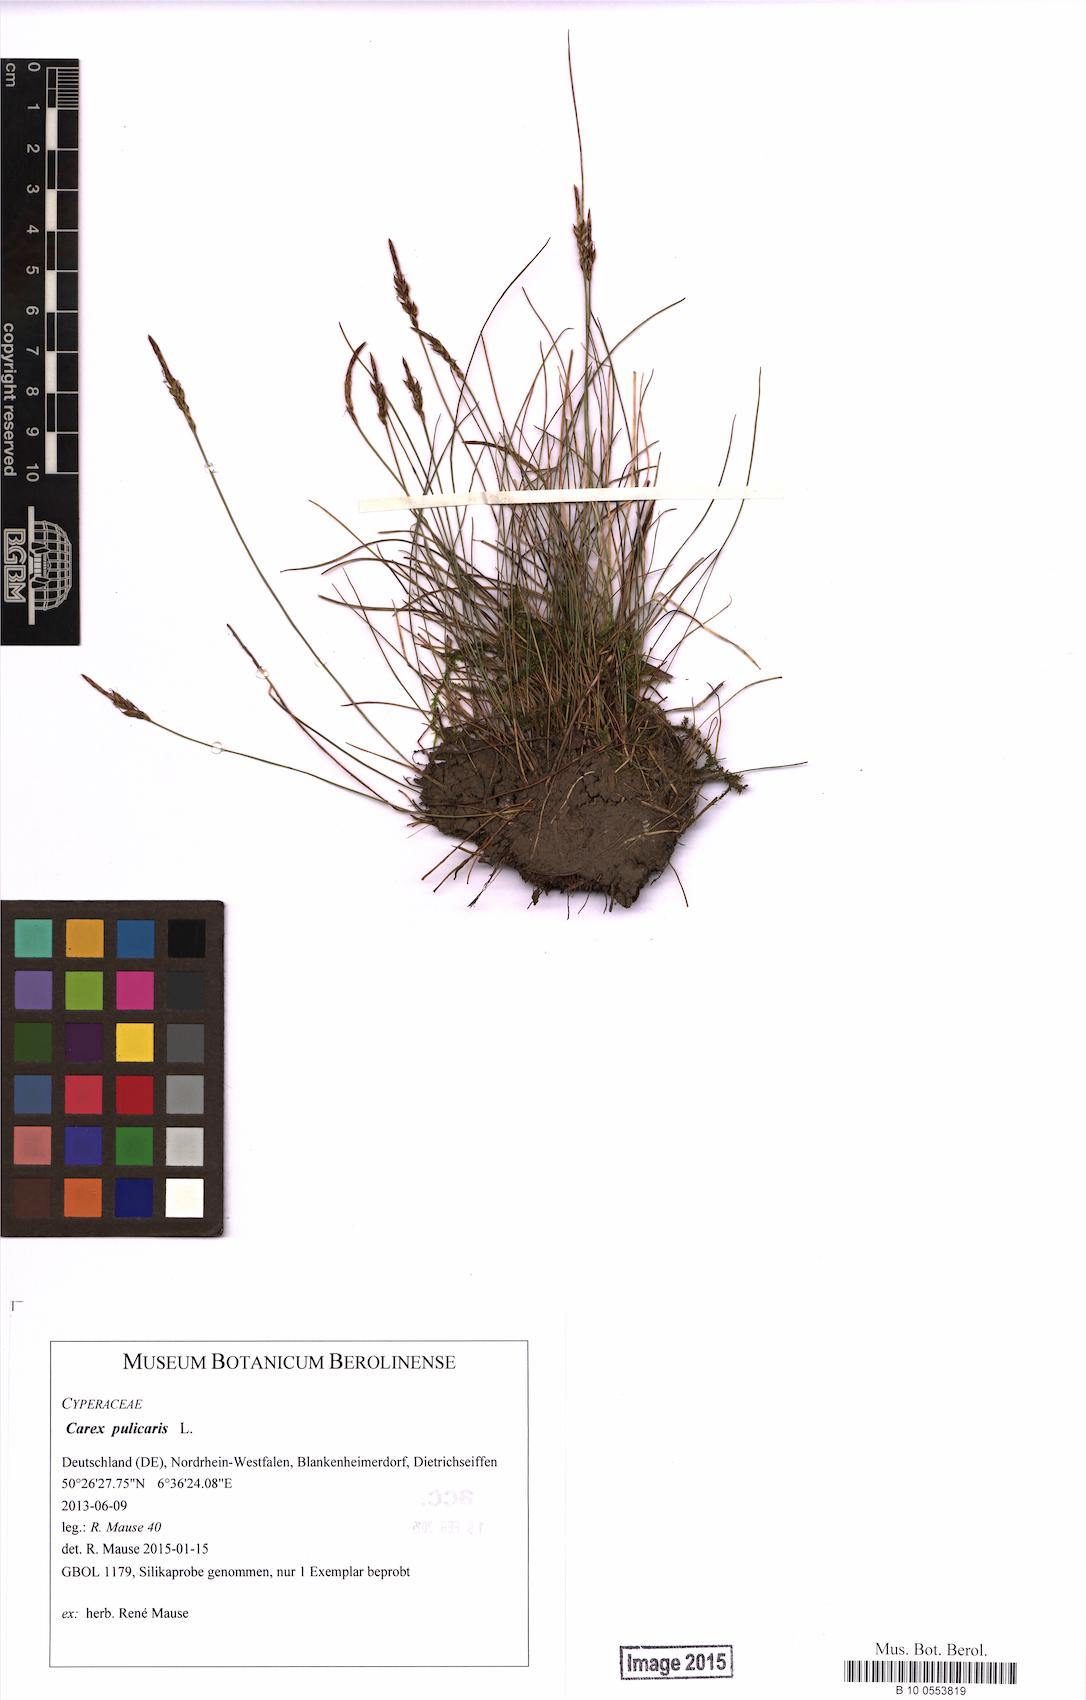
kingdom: Plantae
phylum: Tracheophyta
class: Liliopsida
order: Poales
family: Cyperaceae
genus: Carex
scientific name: Carex pulicaris
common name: Flea sedge
